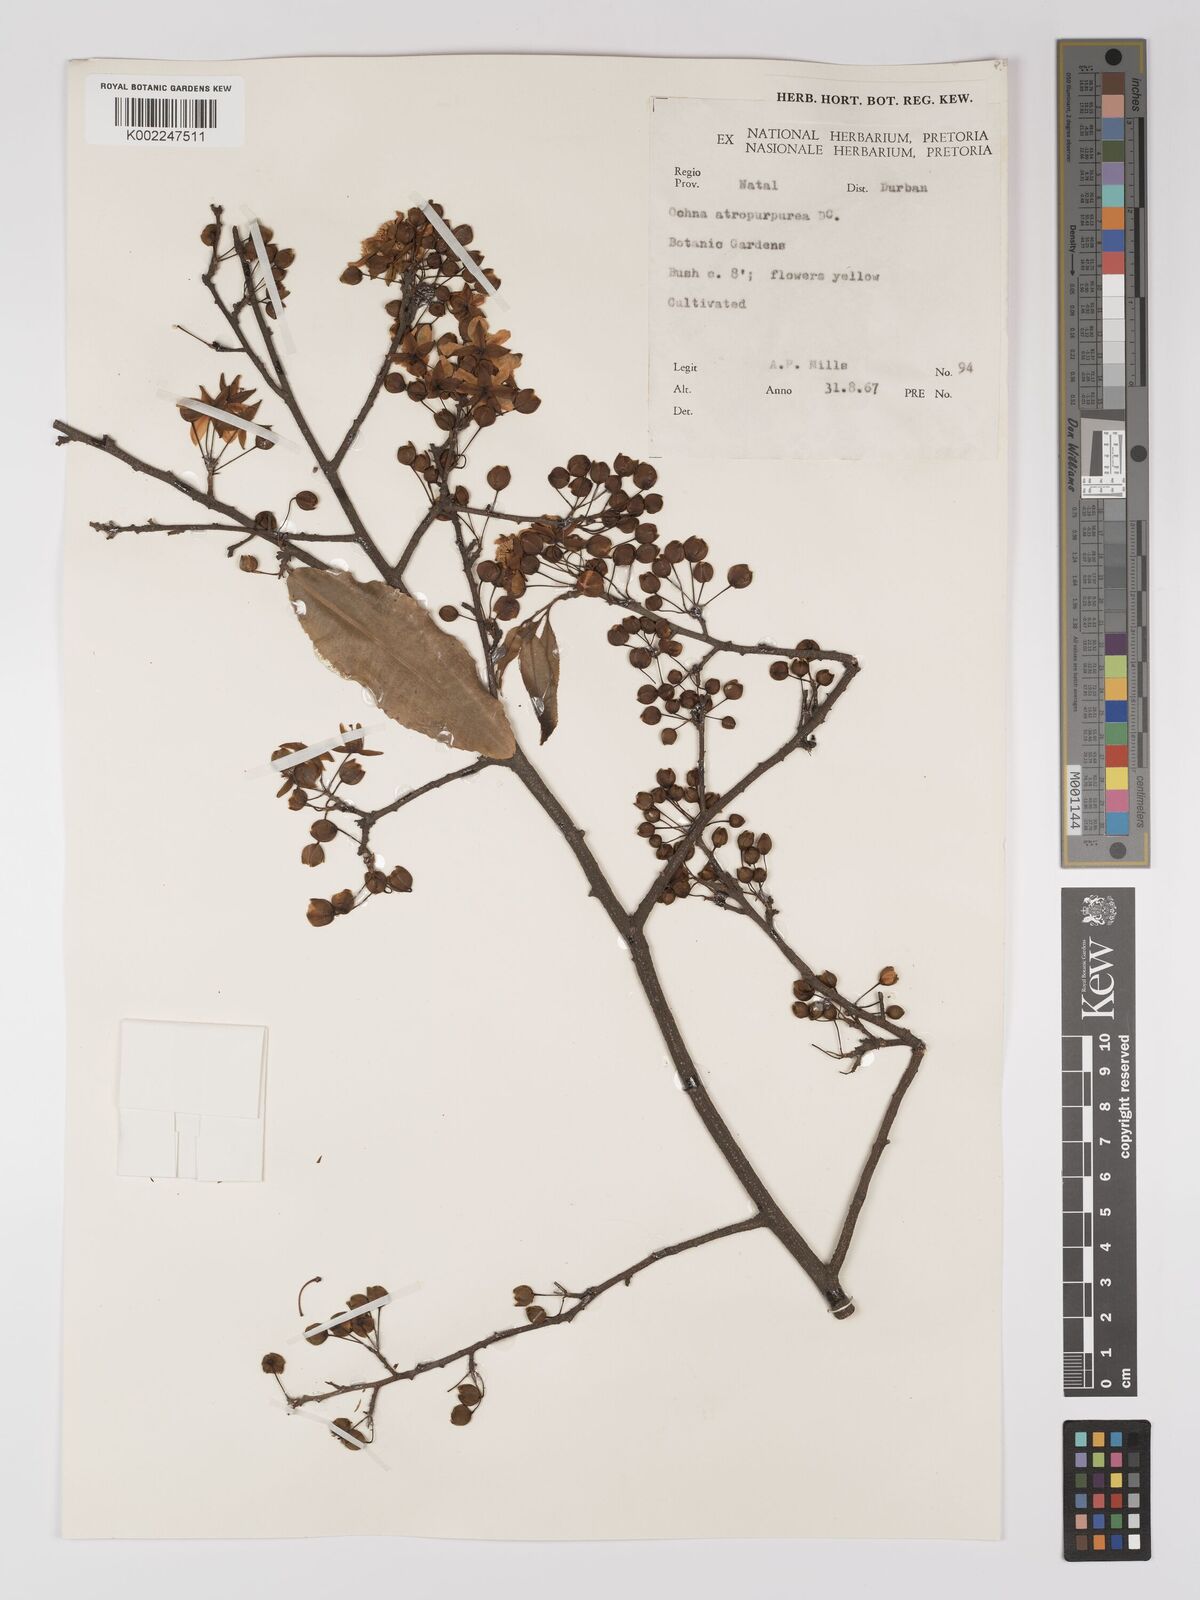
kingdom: Plantae
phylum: Tracheophyta
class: Magnoliopsida
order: Malpighiales
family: Ochnaceae
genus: Ochna
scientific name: Ochna serrulata
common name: Mickey mouse plant
